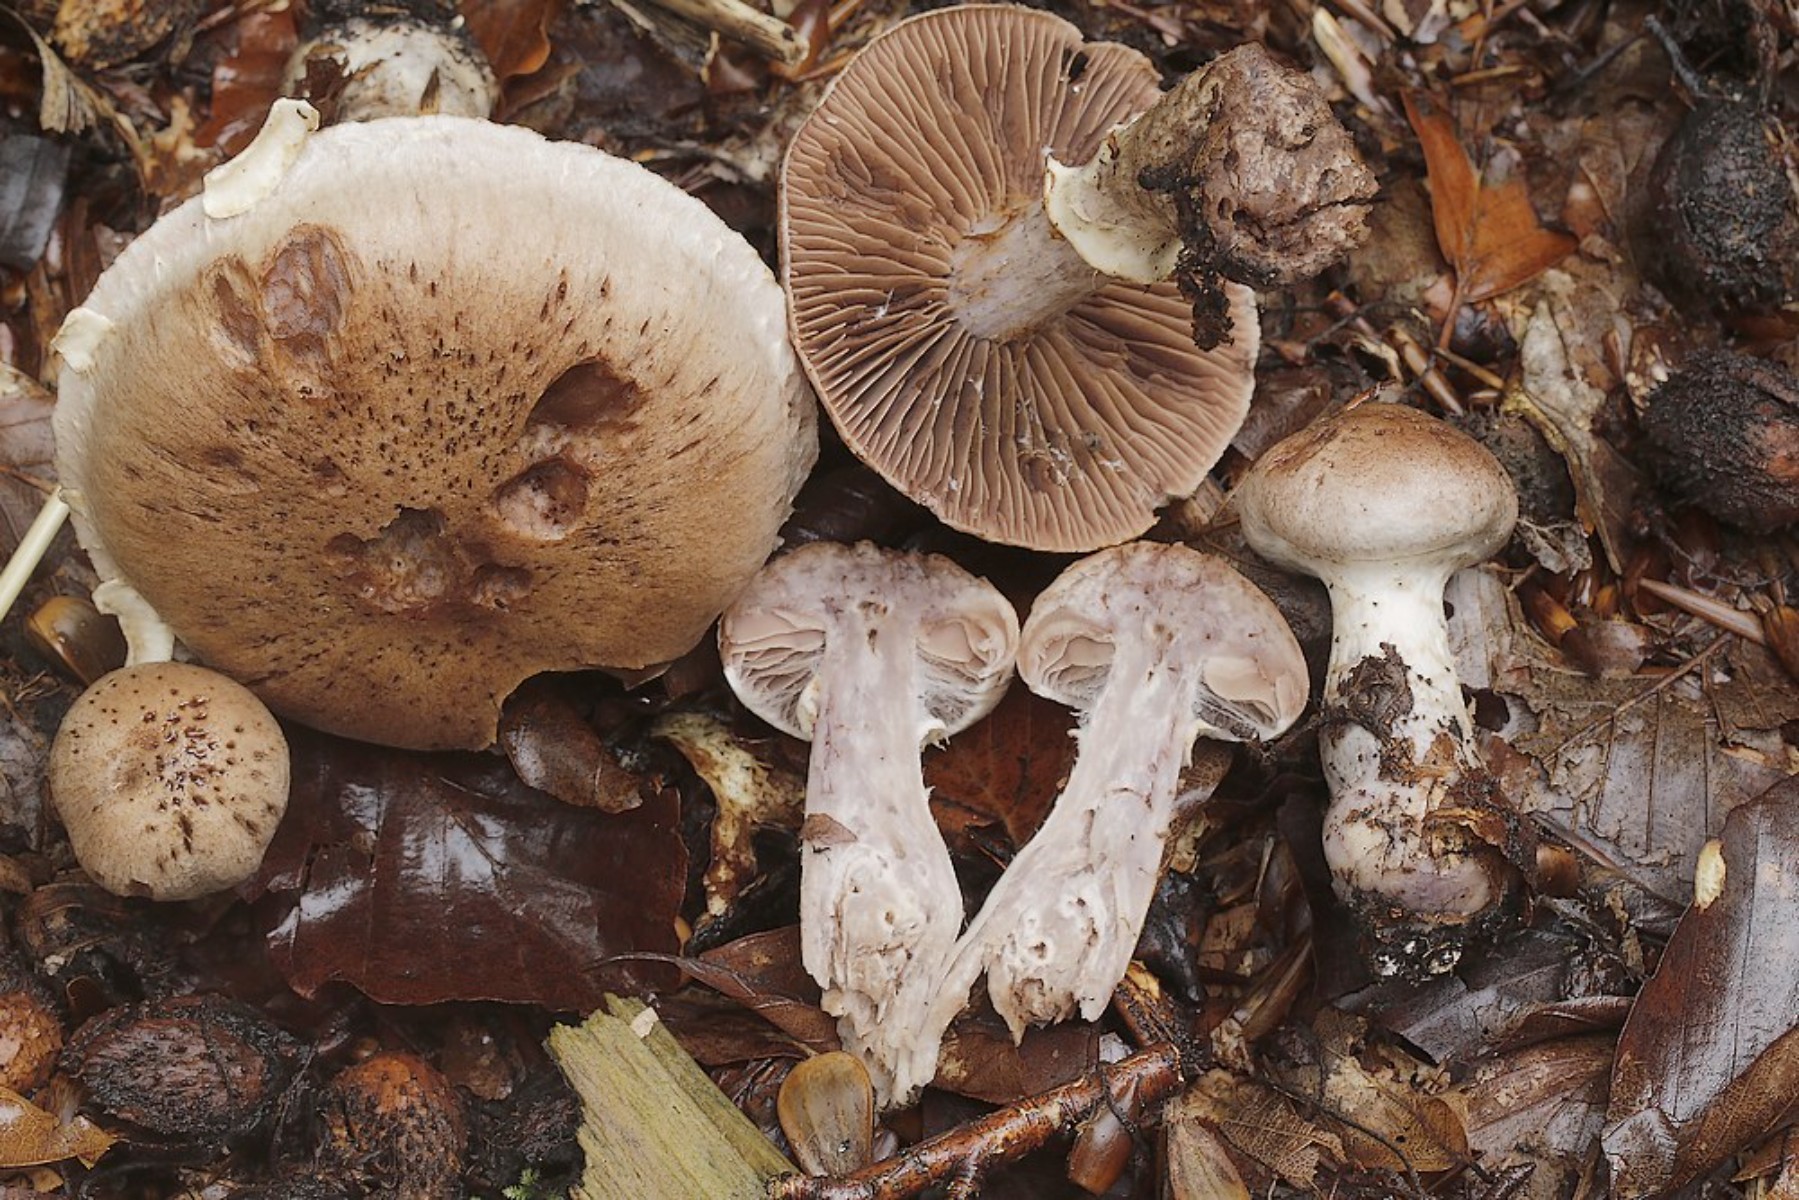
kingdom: Fungi
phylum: Basidiomycota
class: Agaricomycetes
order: Agaricales
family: Cortinariaceae
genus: Cortinarius
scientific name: Cortinarius torvus
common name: champignonagtig slørhat
